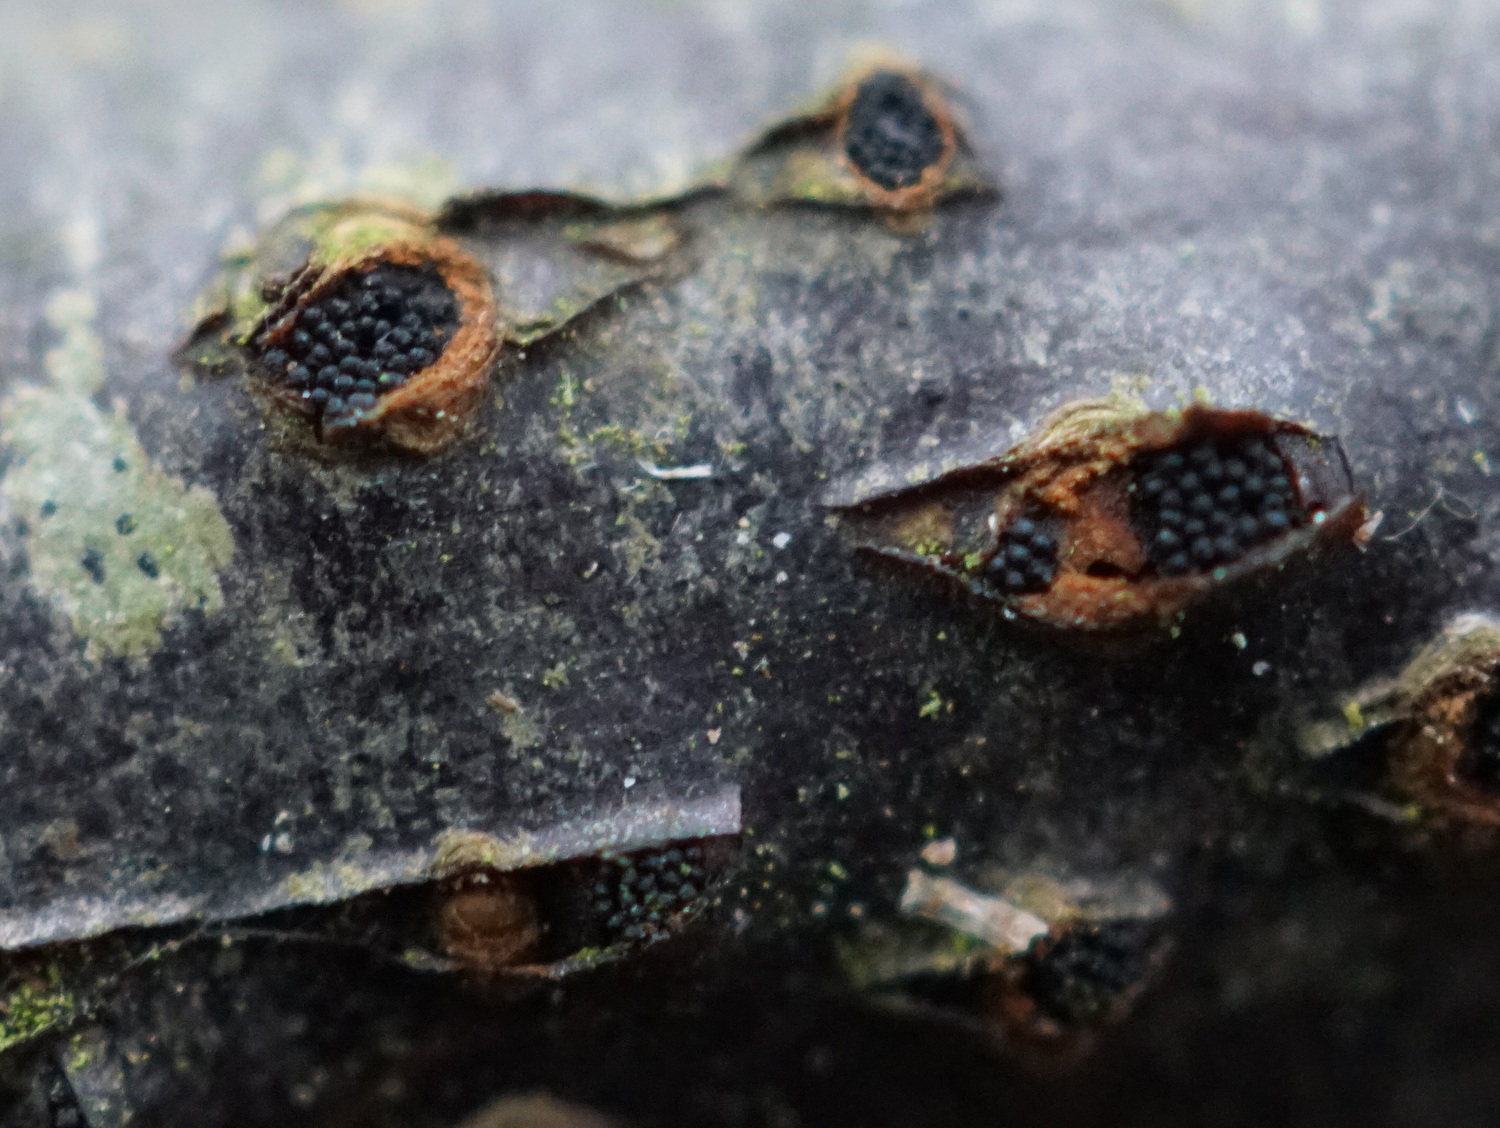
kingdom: Fungi
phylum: Ascomycota
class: Sordariomycetes
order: Diaporthales
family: Diaporthaceae
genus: Diaporthe
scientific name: Diaporthe decorticans
